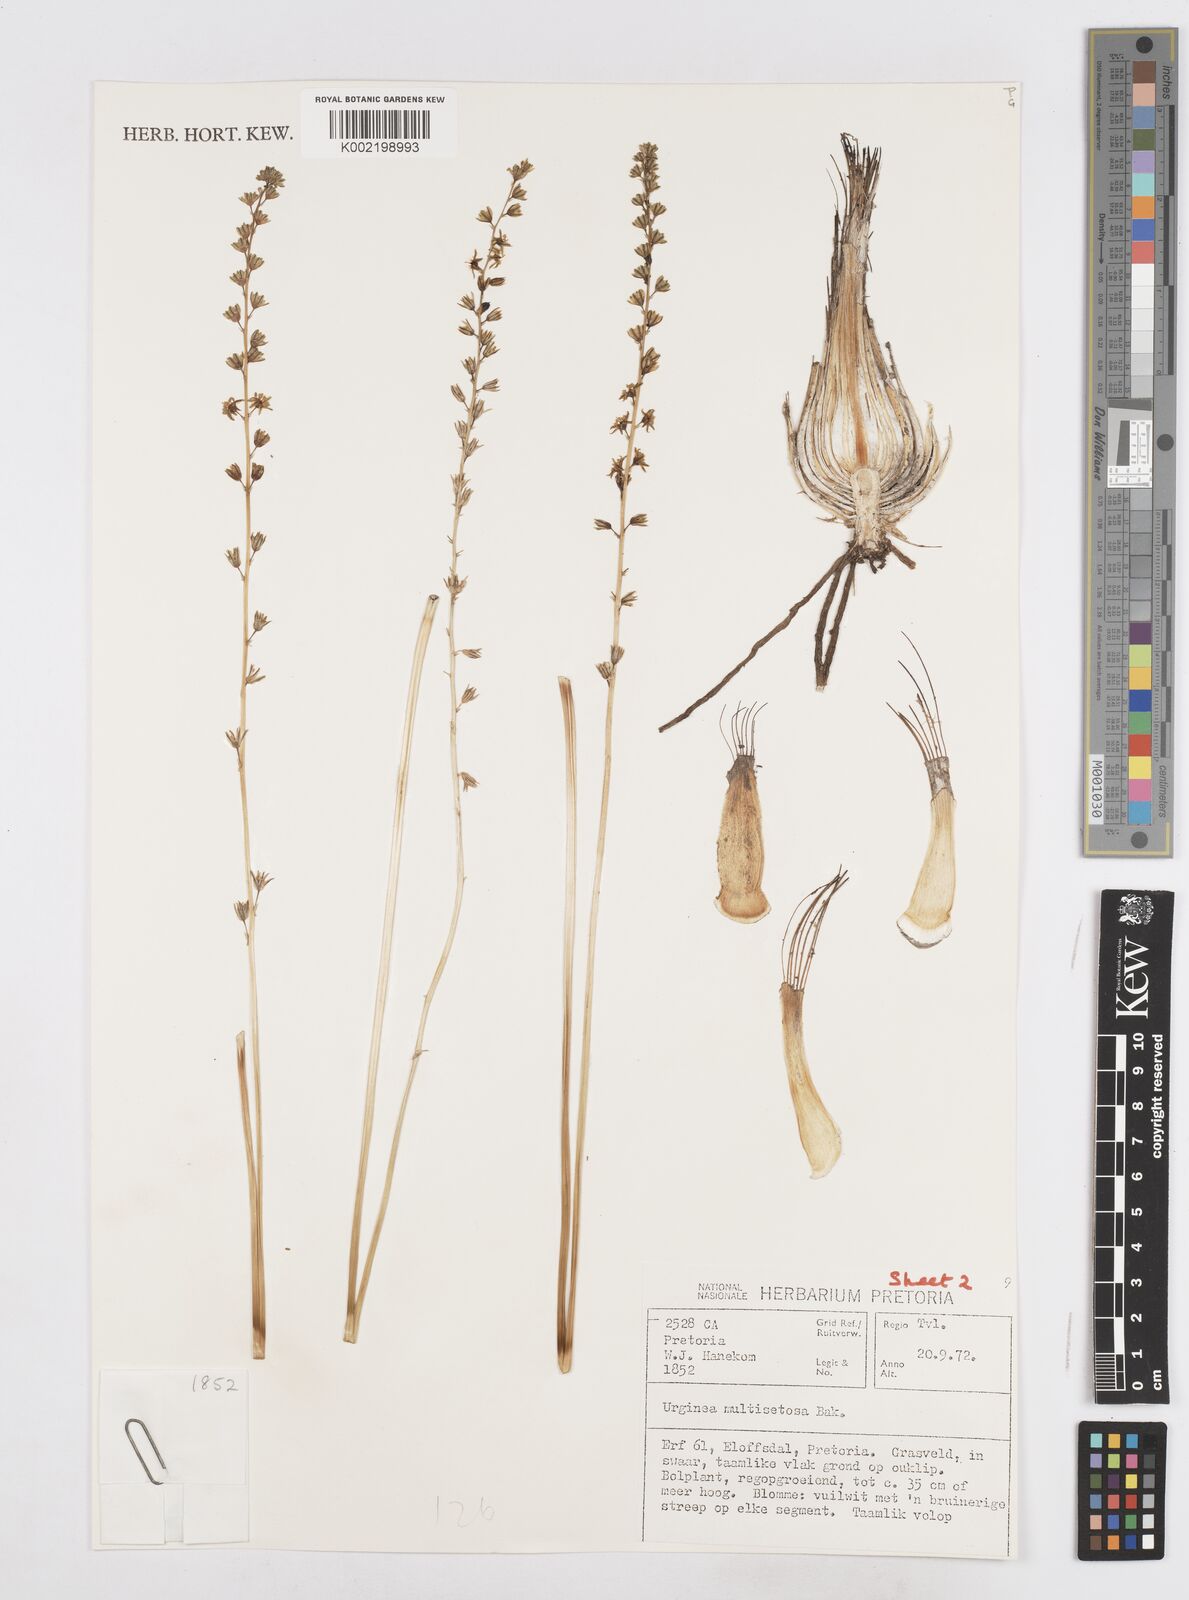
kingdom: Plantae
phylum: Tracheophyta
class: Liliopsida
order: Asparagales
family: Asparagaceae
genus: Drimia
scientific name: Drimia multisetosa
